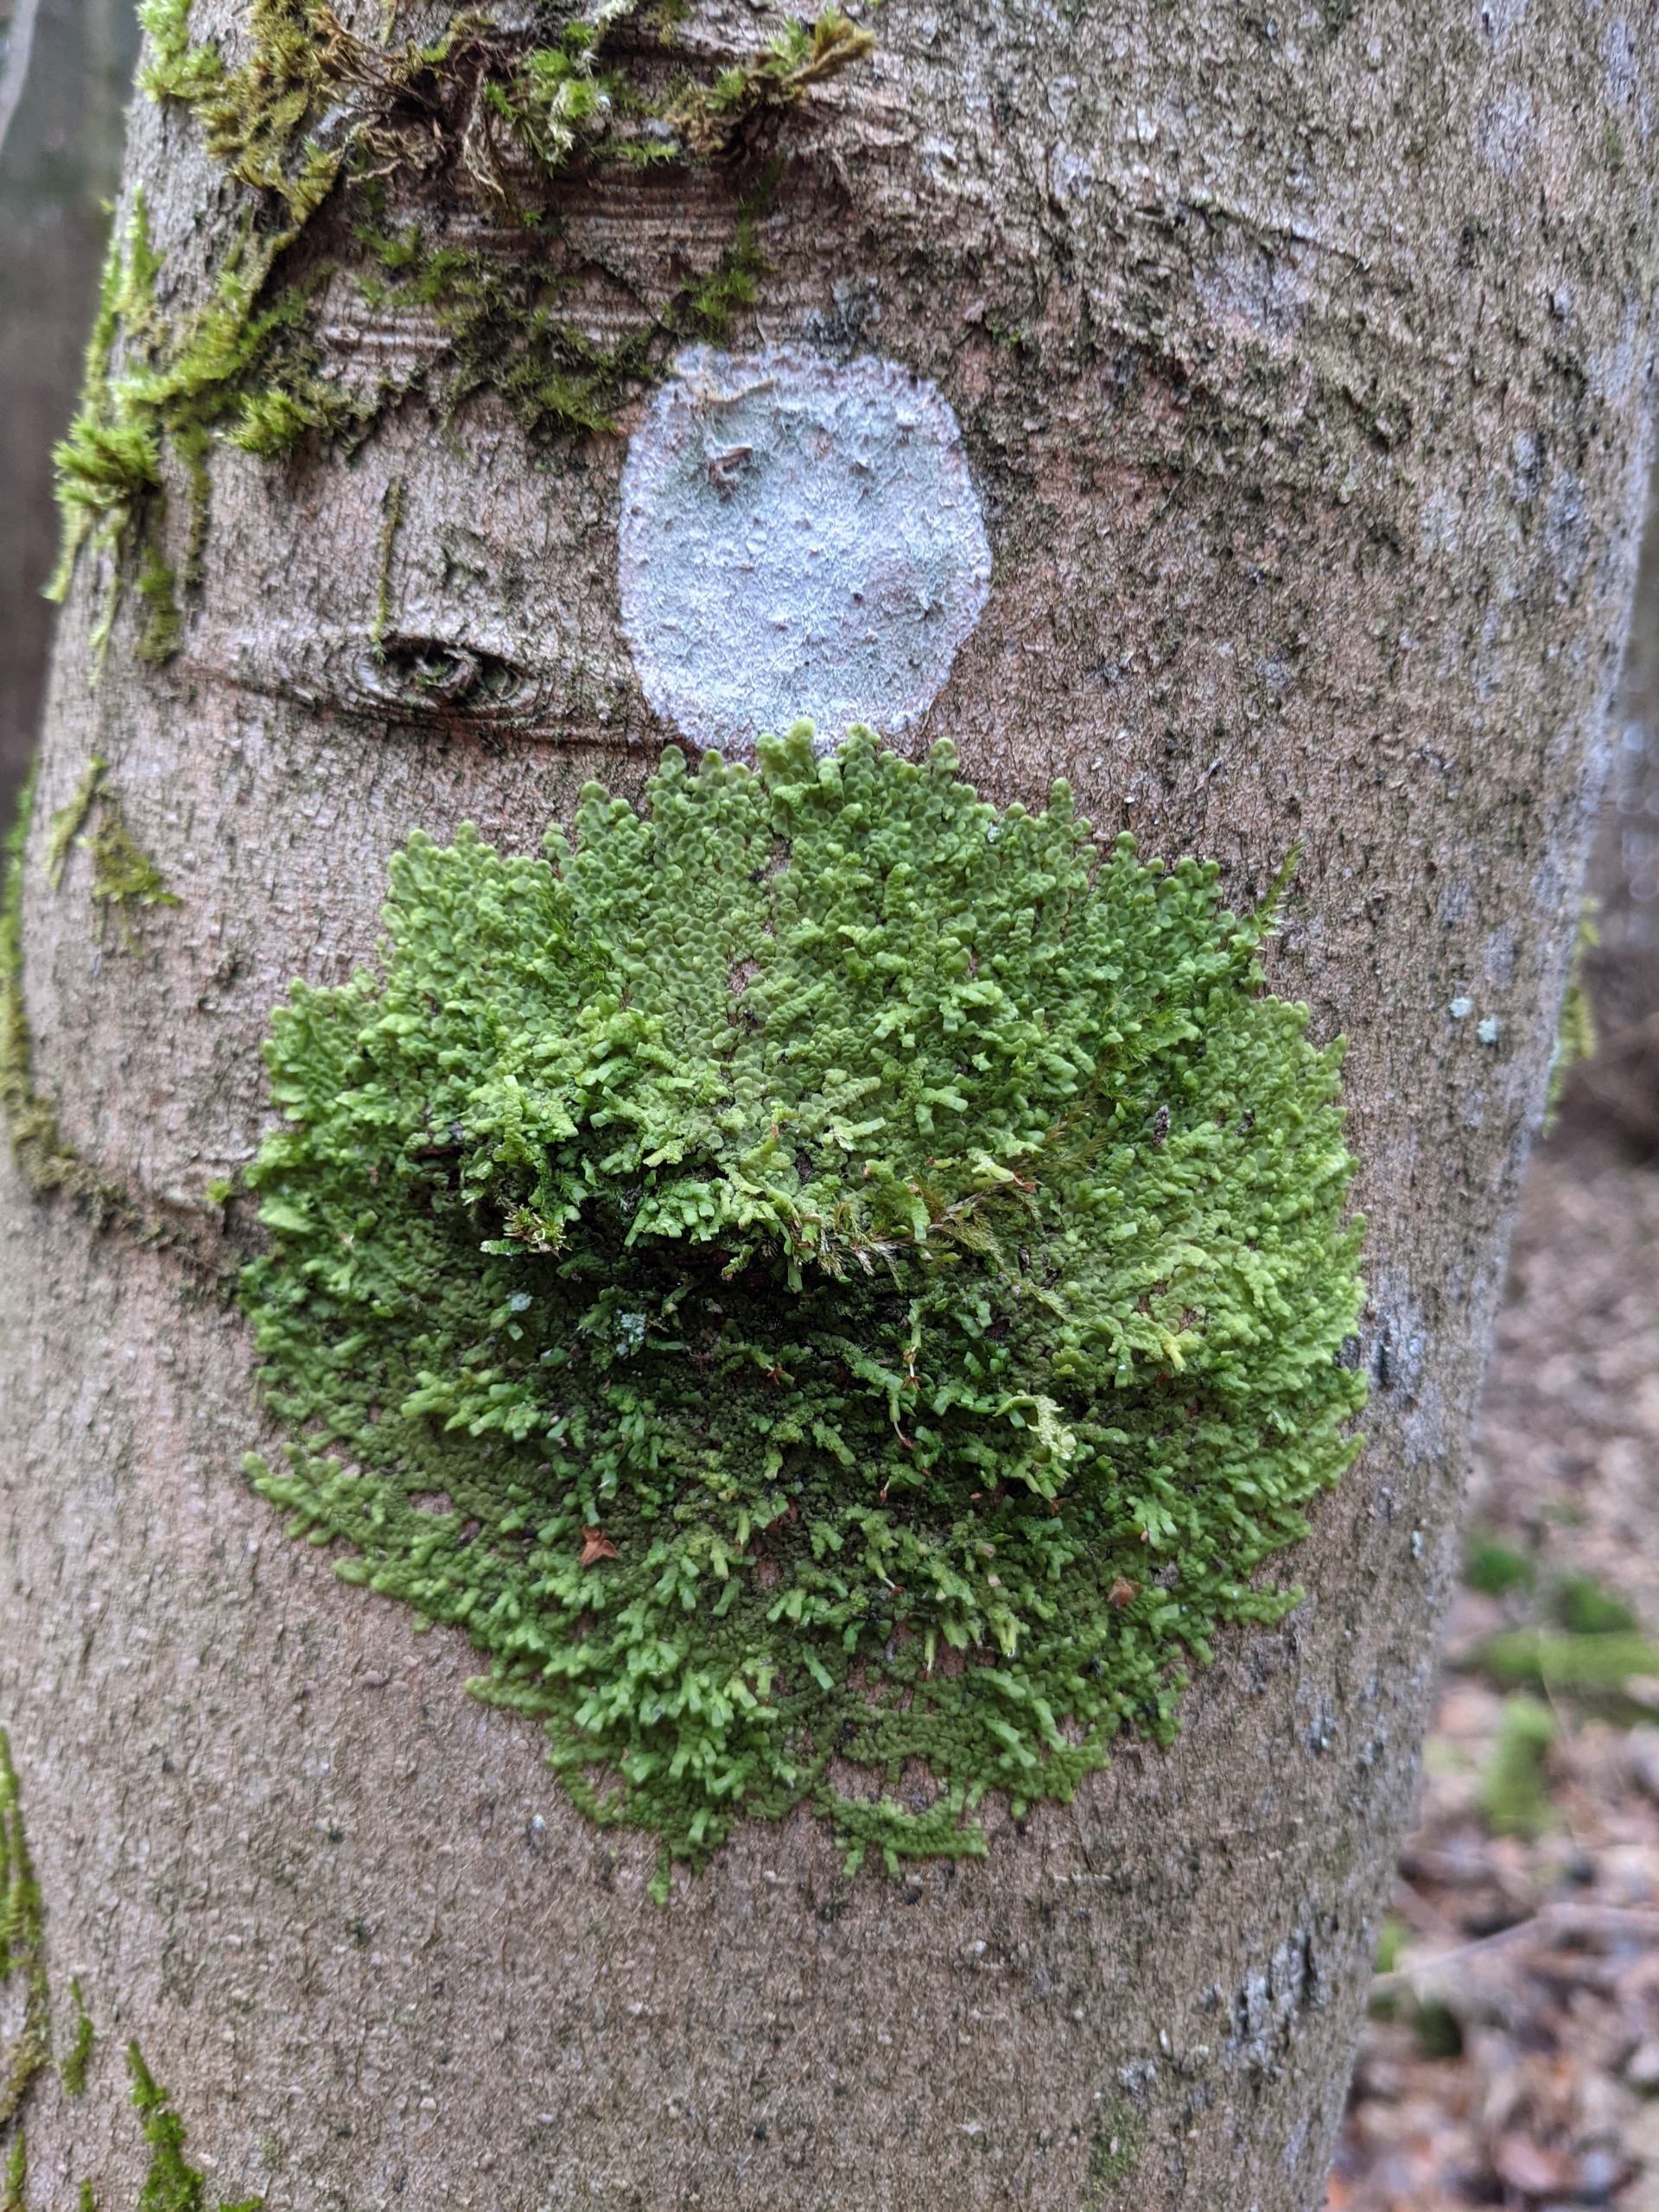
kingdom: Plantae
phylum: Marchantiophyta
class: Jungermanniopsida
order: Porellales
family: Radulaceae
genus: Radula
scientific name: Radula complanata
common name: Almindelig spartelmos
